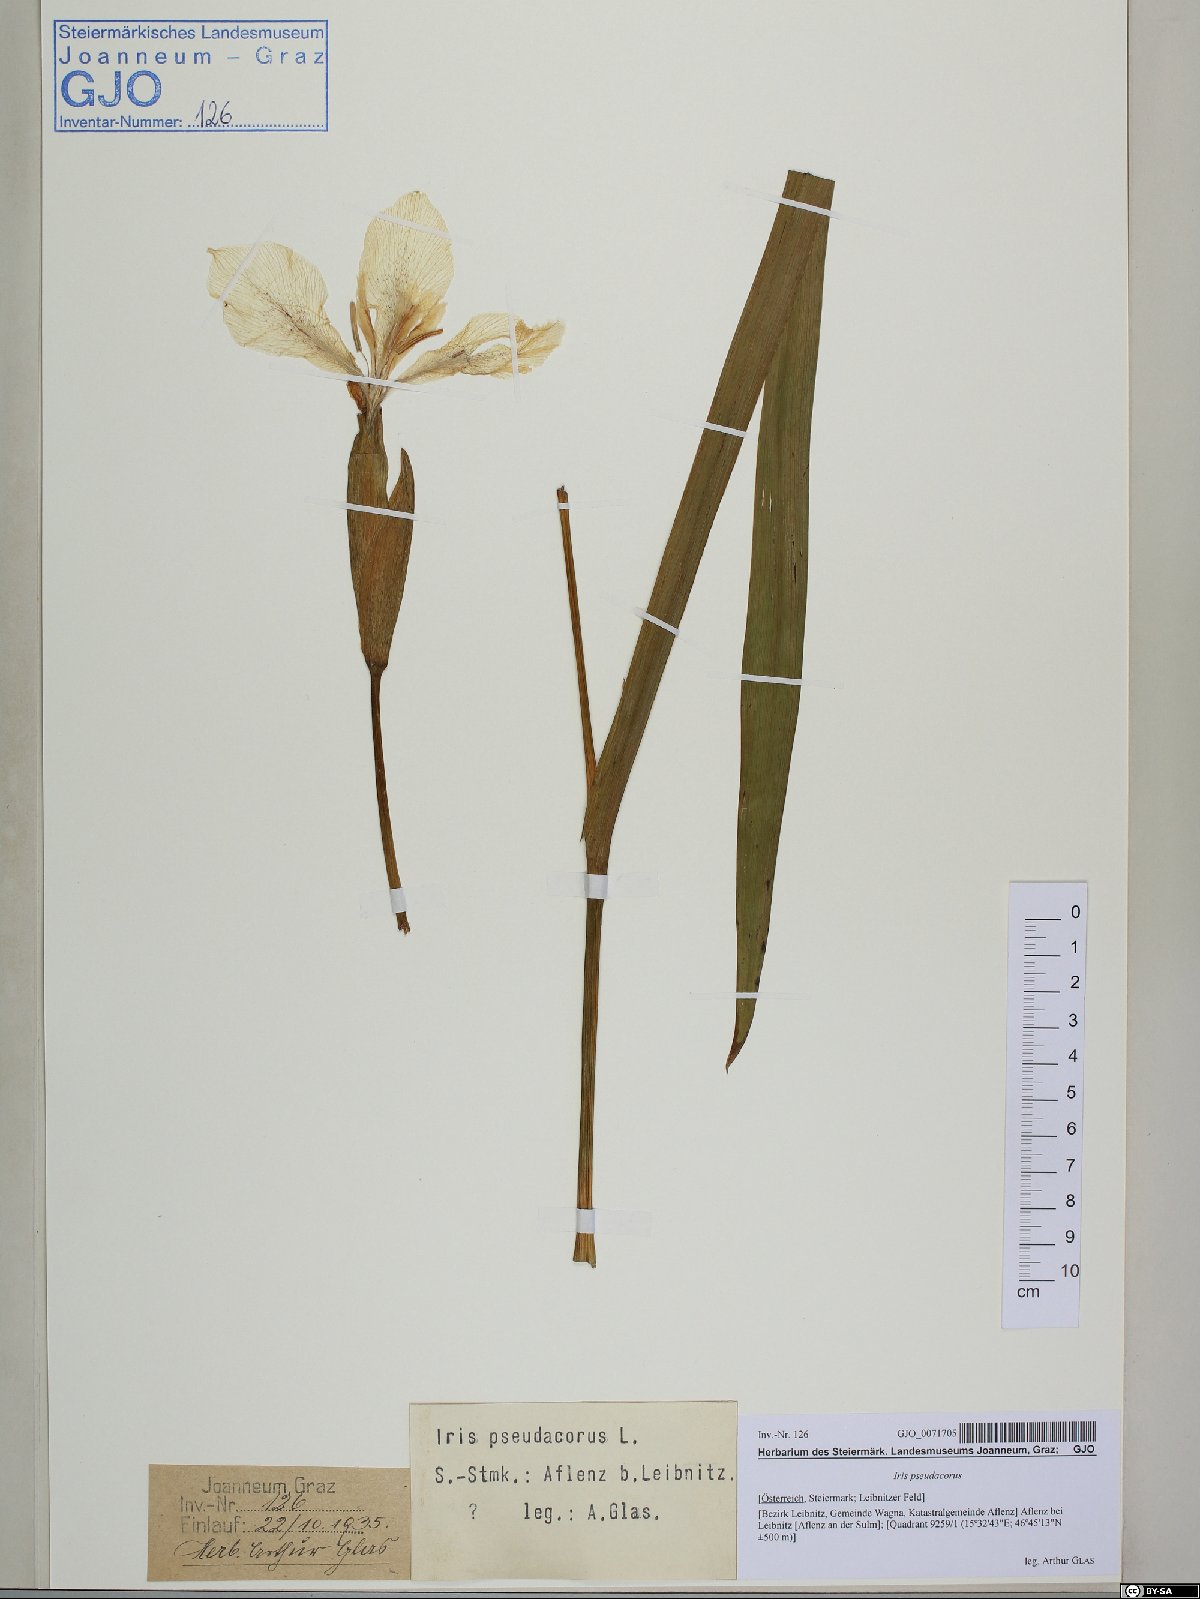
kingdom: Plantae
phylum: Tracheophyta
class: Liliopsida
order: Asparagales
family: Iridaceae
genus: Iris
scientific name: Iris pseudacorus
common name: Yellow flag
